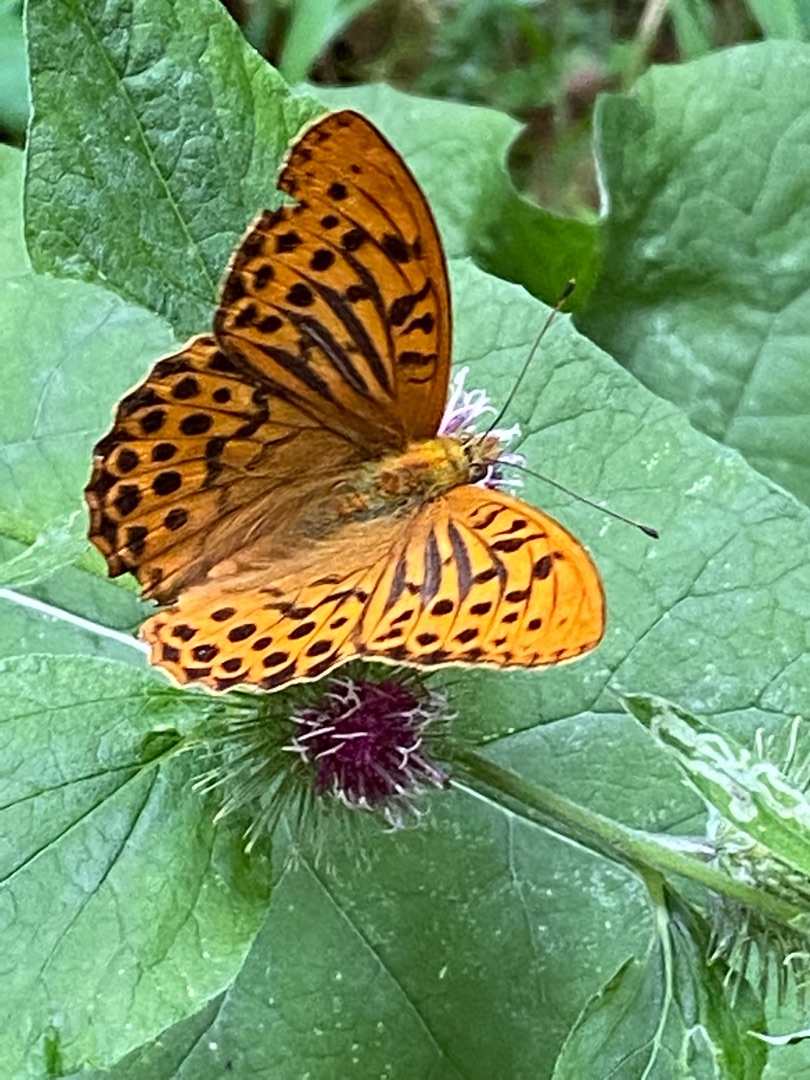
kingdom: Animalia
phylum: Arthropoda
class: Insecta
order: Lepidoptera
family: Nymphalidae
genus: Argynnis
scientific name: Argynnis paphia
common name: Kejserkåbe
